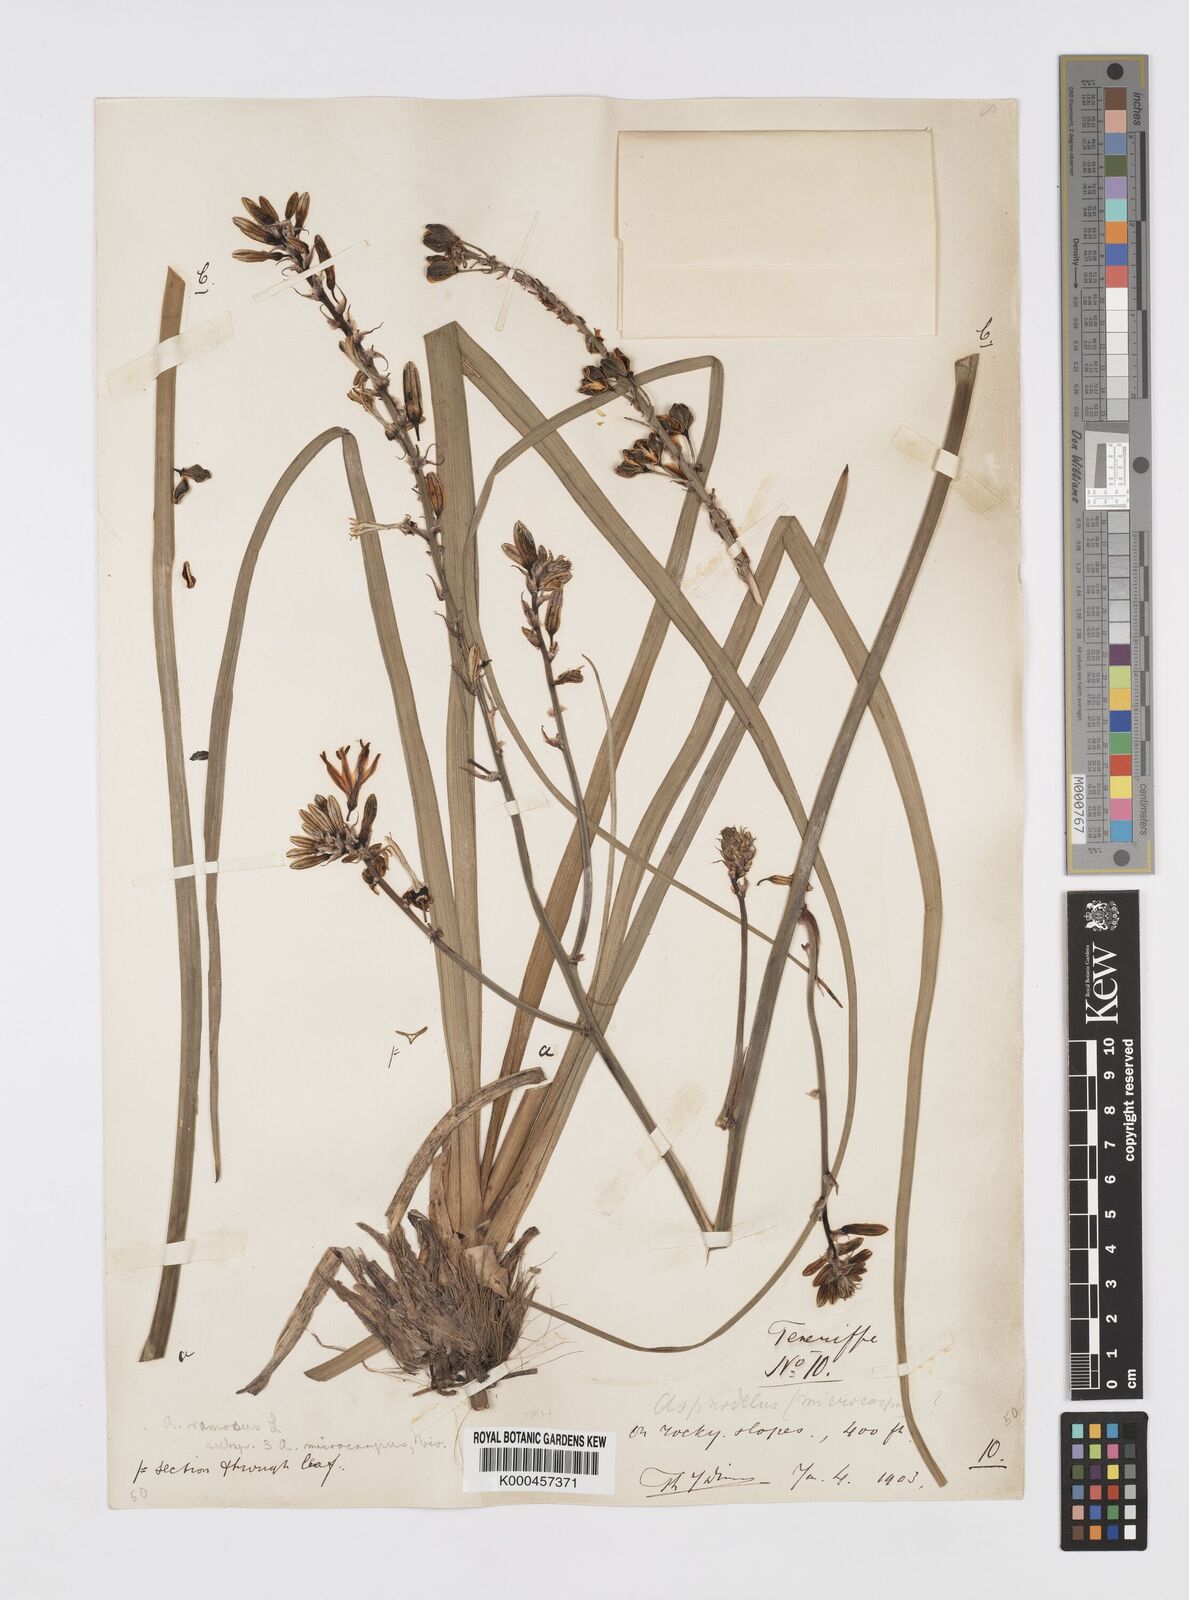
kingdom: Plantae
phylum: Tracheophyta
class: Liliopsida
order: Asparagales
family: Asphodelaceae
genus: Asphodelus
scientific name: Asphodelus aestivus
